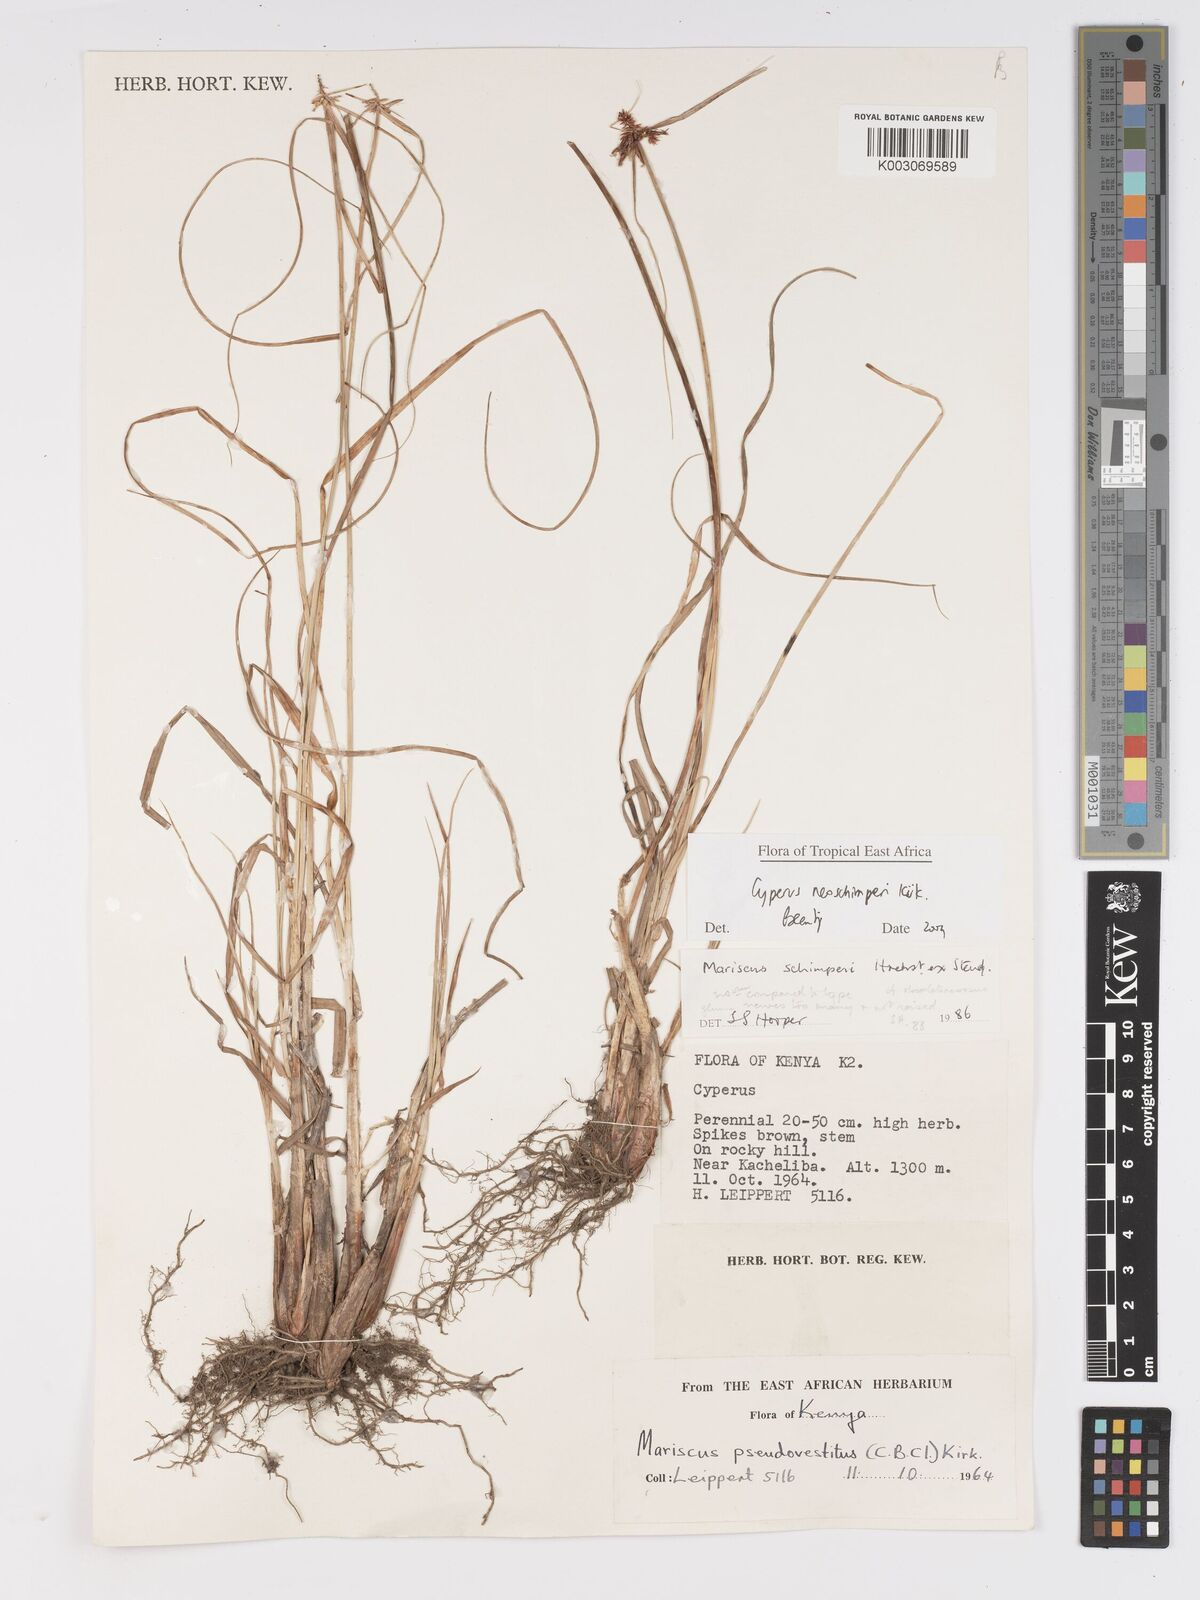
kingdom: Plantae
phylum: Tracheophyta
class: Liliopsida
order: Poales
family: Cyperaceae
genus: Cyperus
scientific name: Cyperus cruentus
